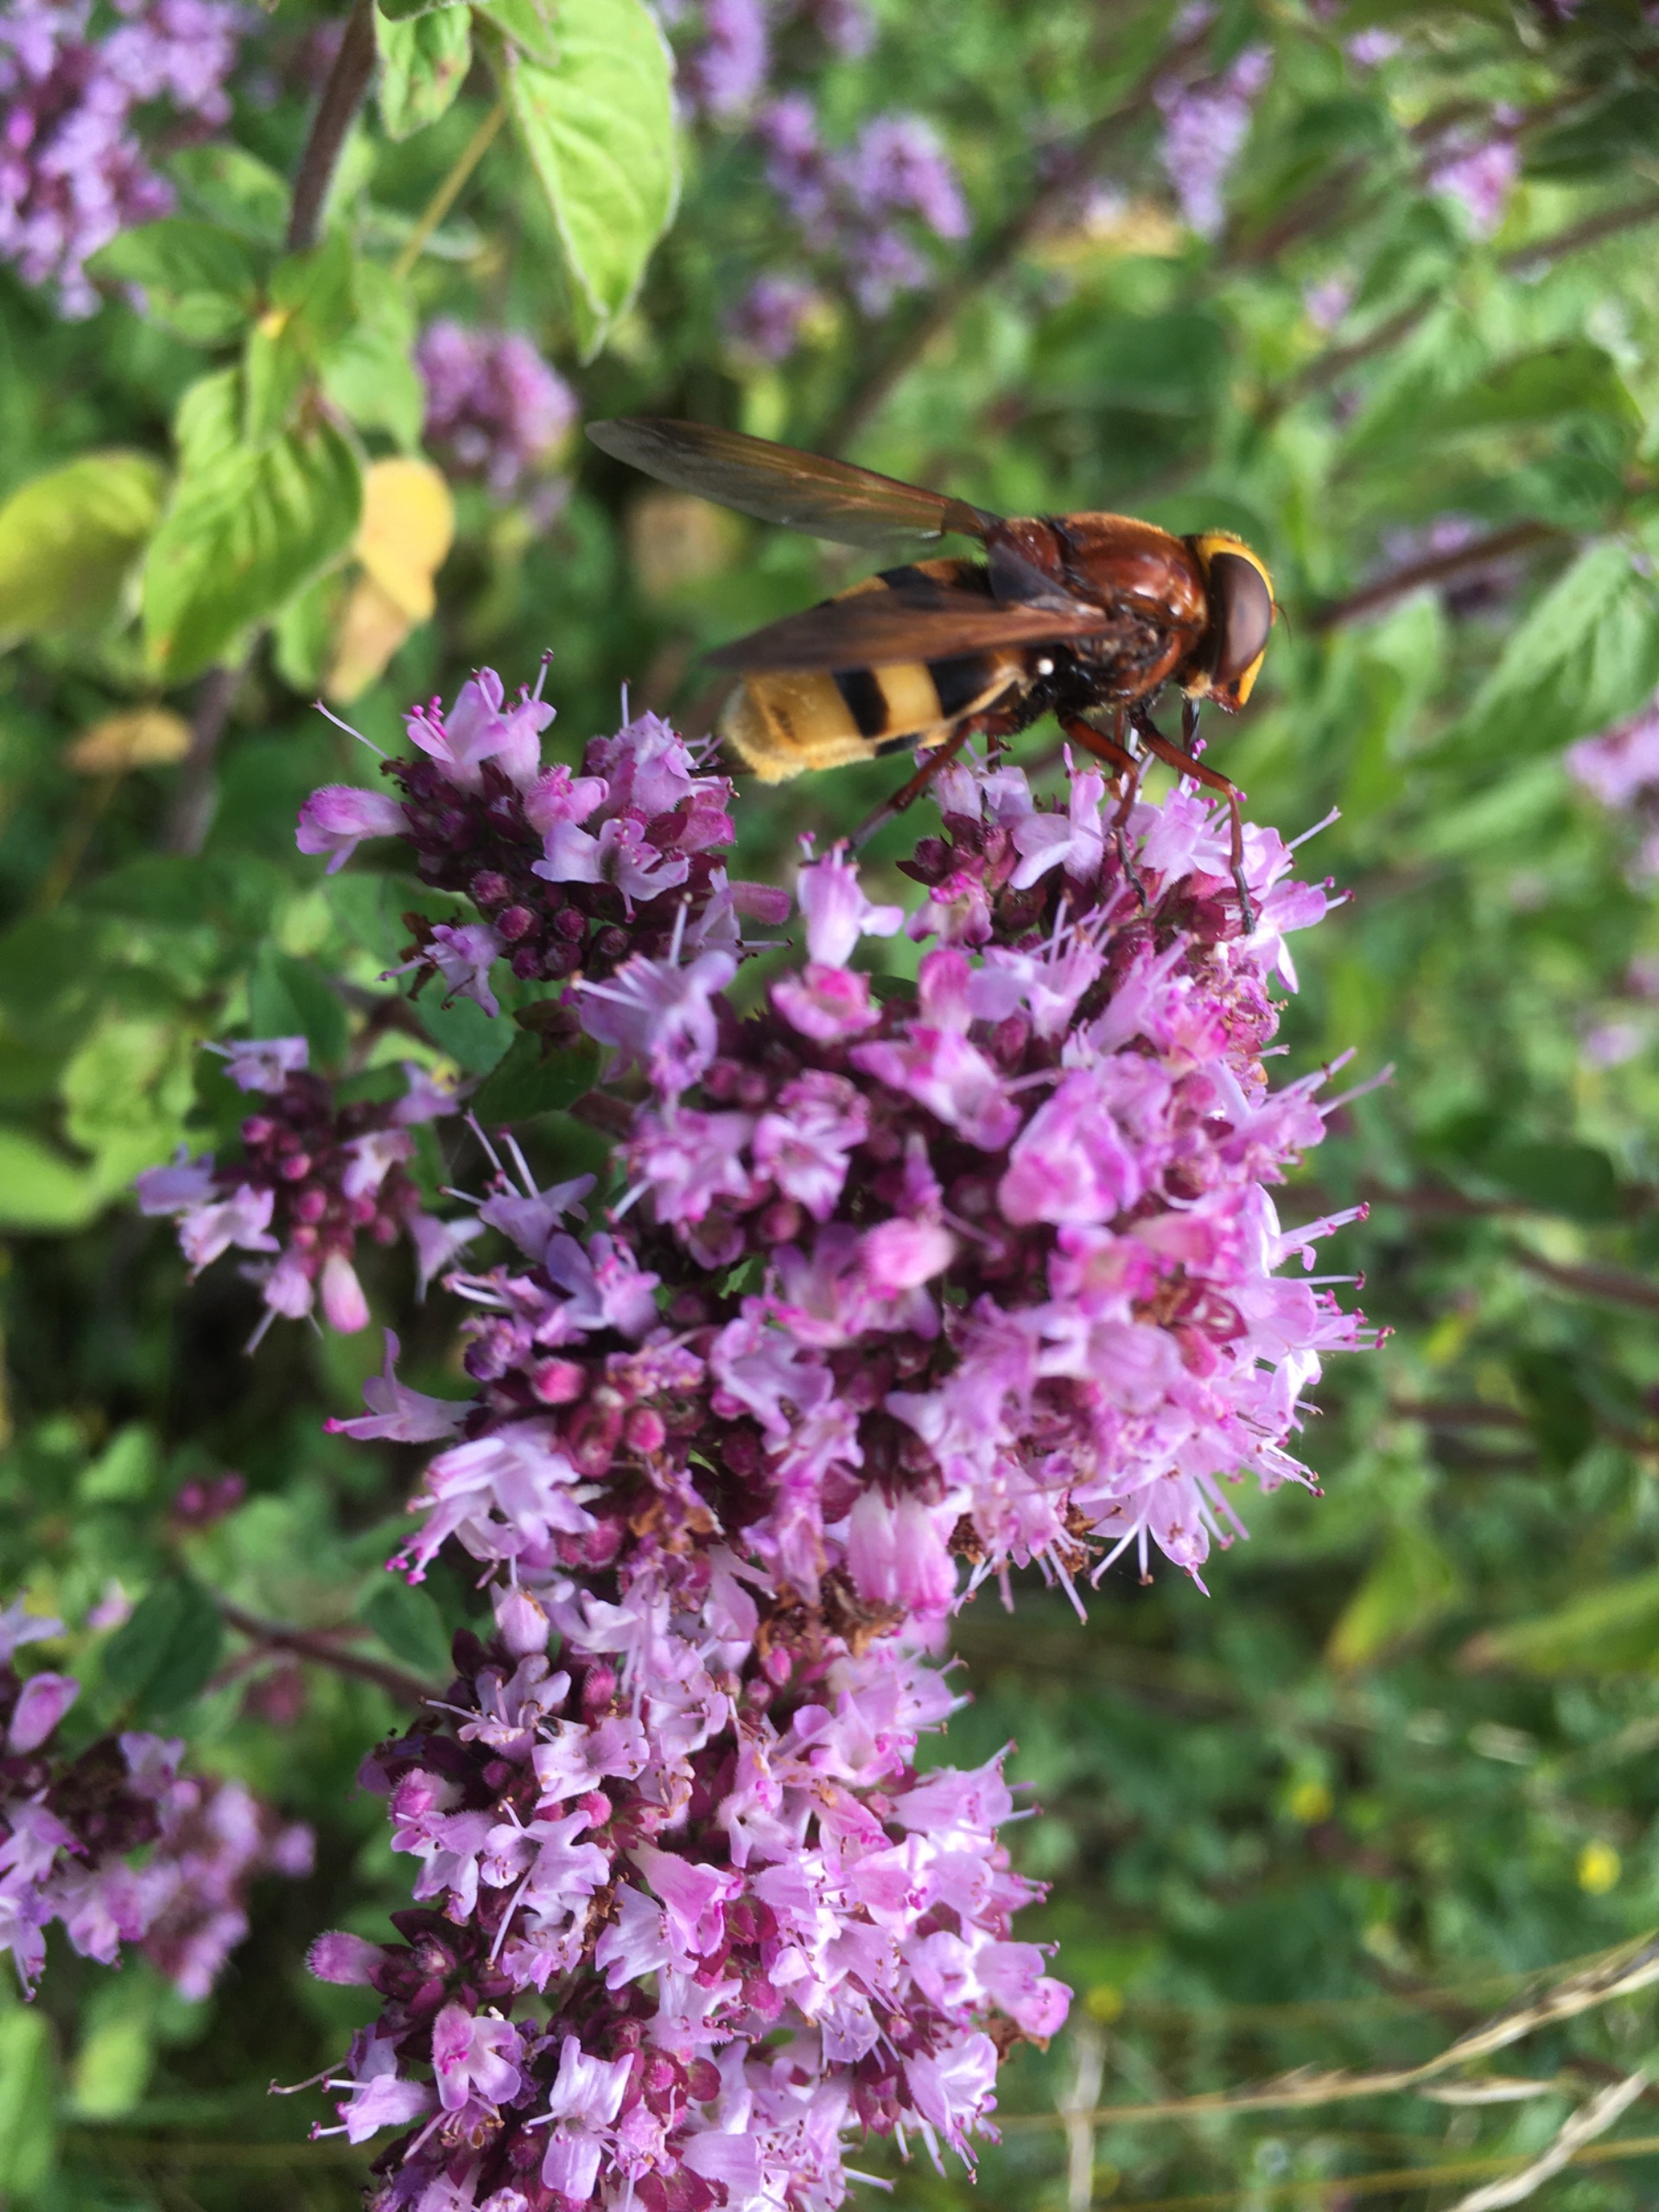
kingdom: Animalia
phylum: Arthropoda
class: Insecta
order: Diptera
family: Syrphidae
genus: Volucella
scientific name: Volucella zonaria
